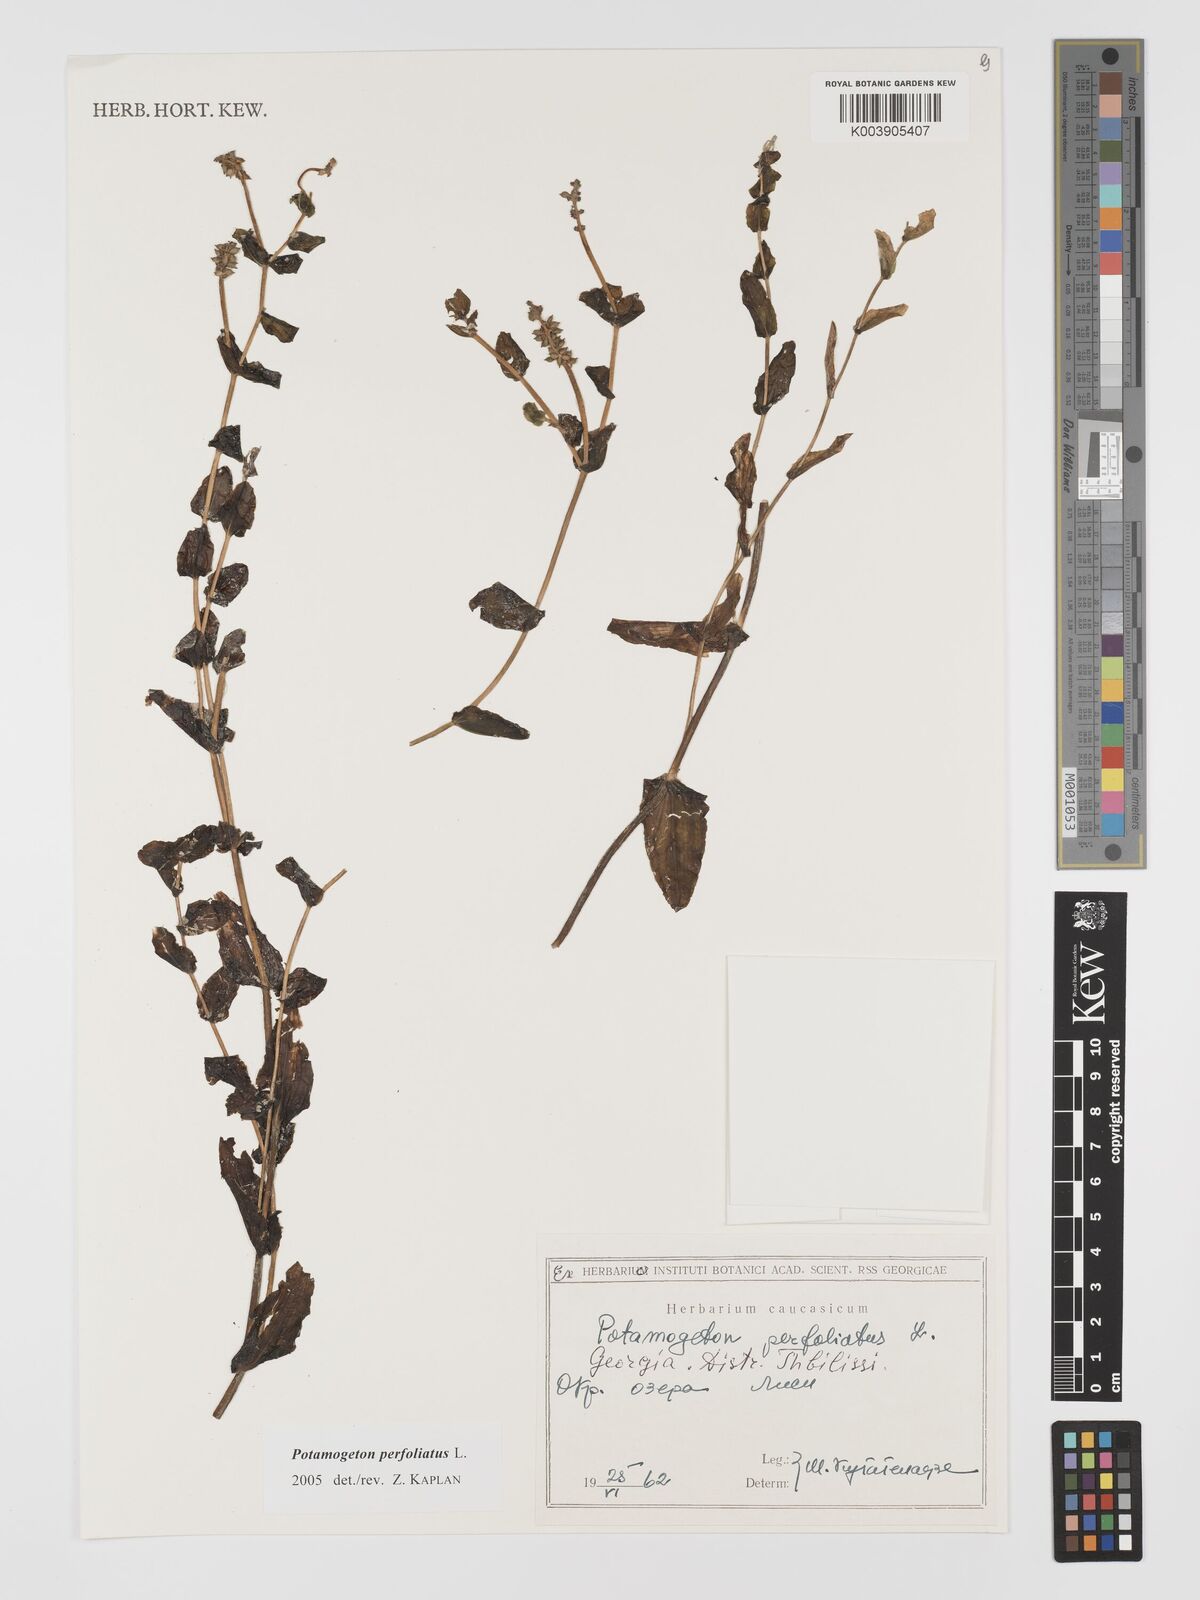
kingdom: Plantae
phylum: Tracheophyta
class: Liliopsida
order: Alismatales
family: Potamogetonaceae
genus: Potamogeton
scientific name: Potamogeton perfoliatus
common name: Perfoliate pondweed
